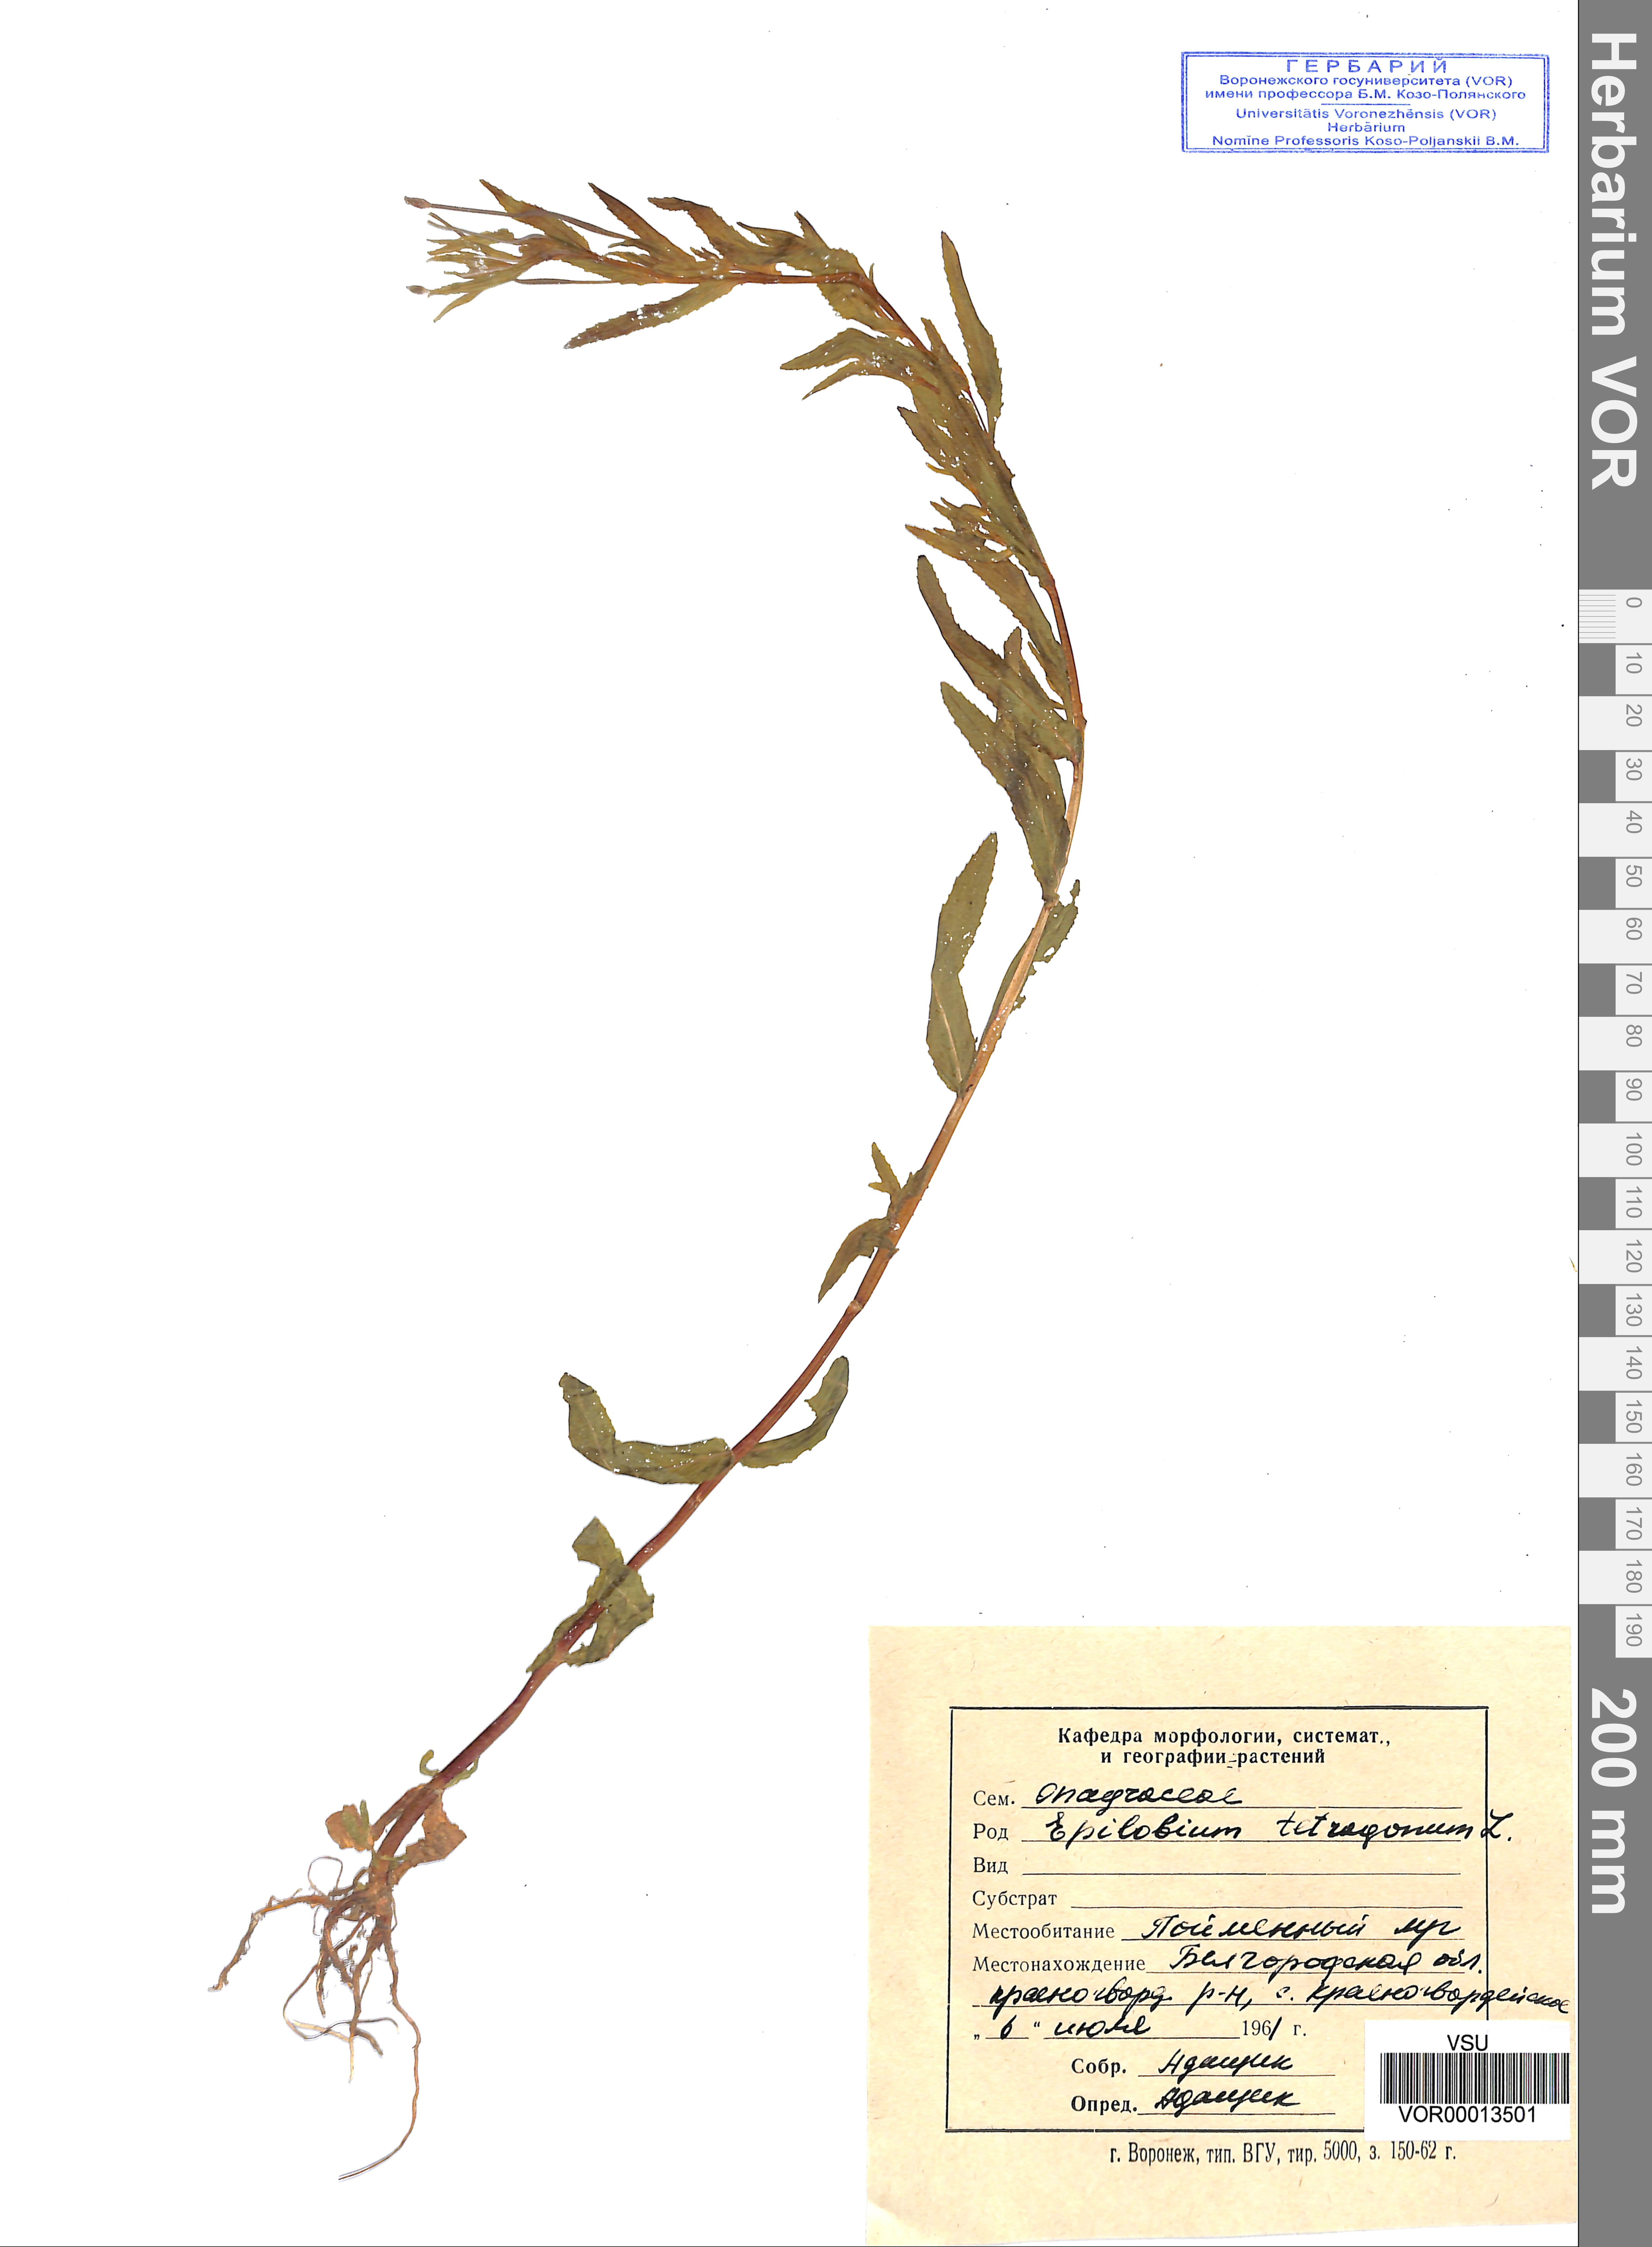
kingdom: Plantae
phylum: Tracheophyta
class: Magnoliopsida
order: Myrtales
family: Onagraceae
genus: Epilobium
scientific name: Epilobium tetragonum
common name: Square-stemmed willowherb
